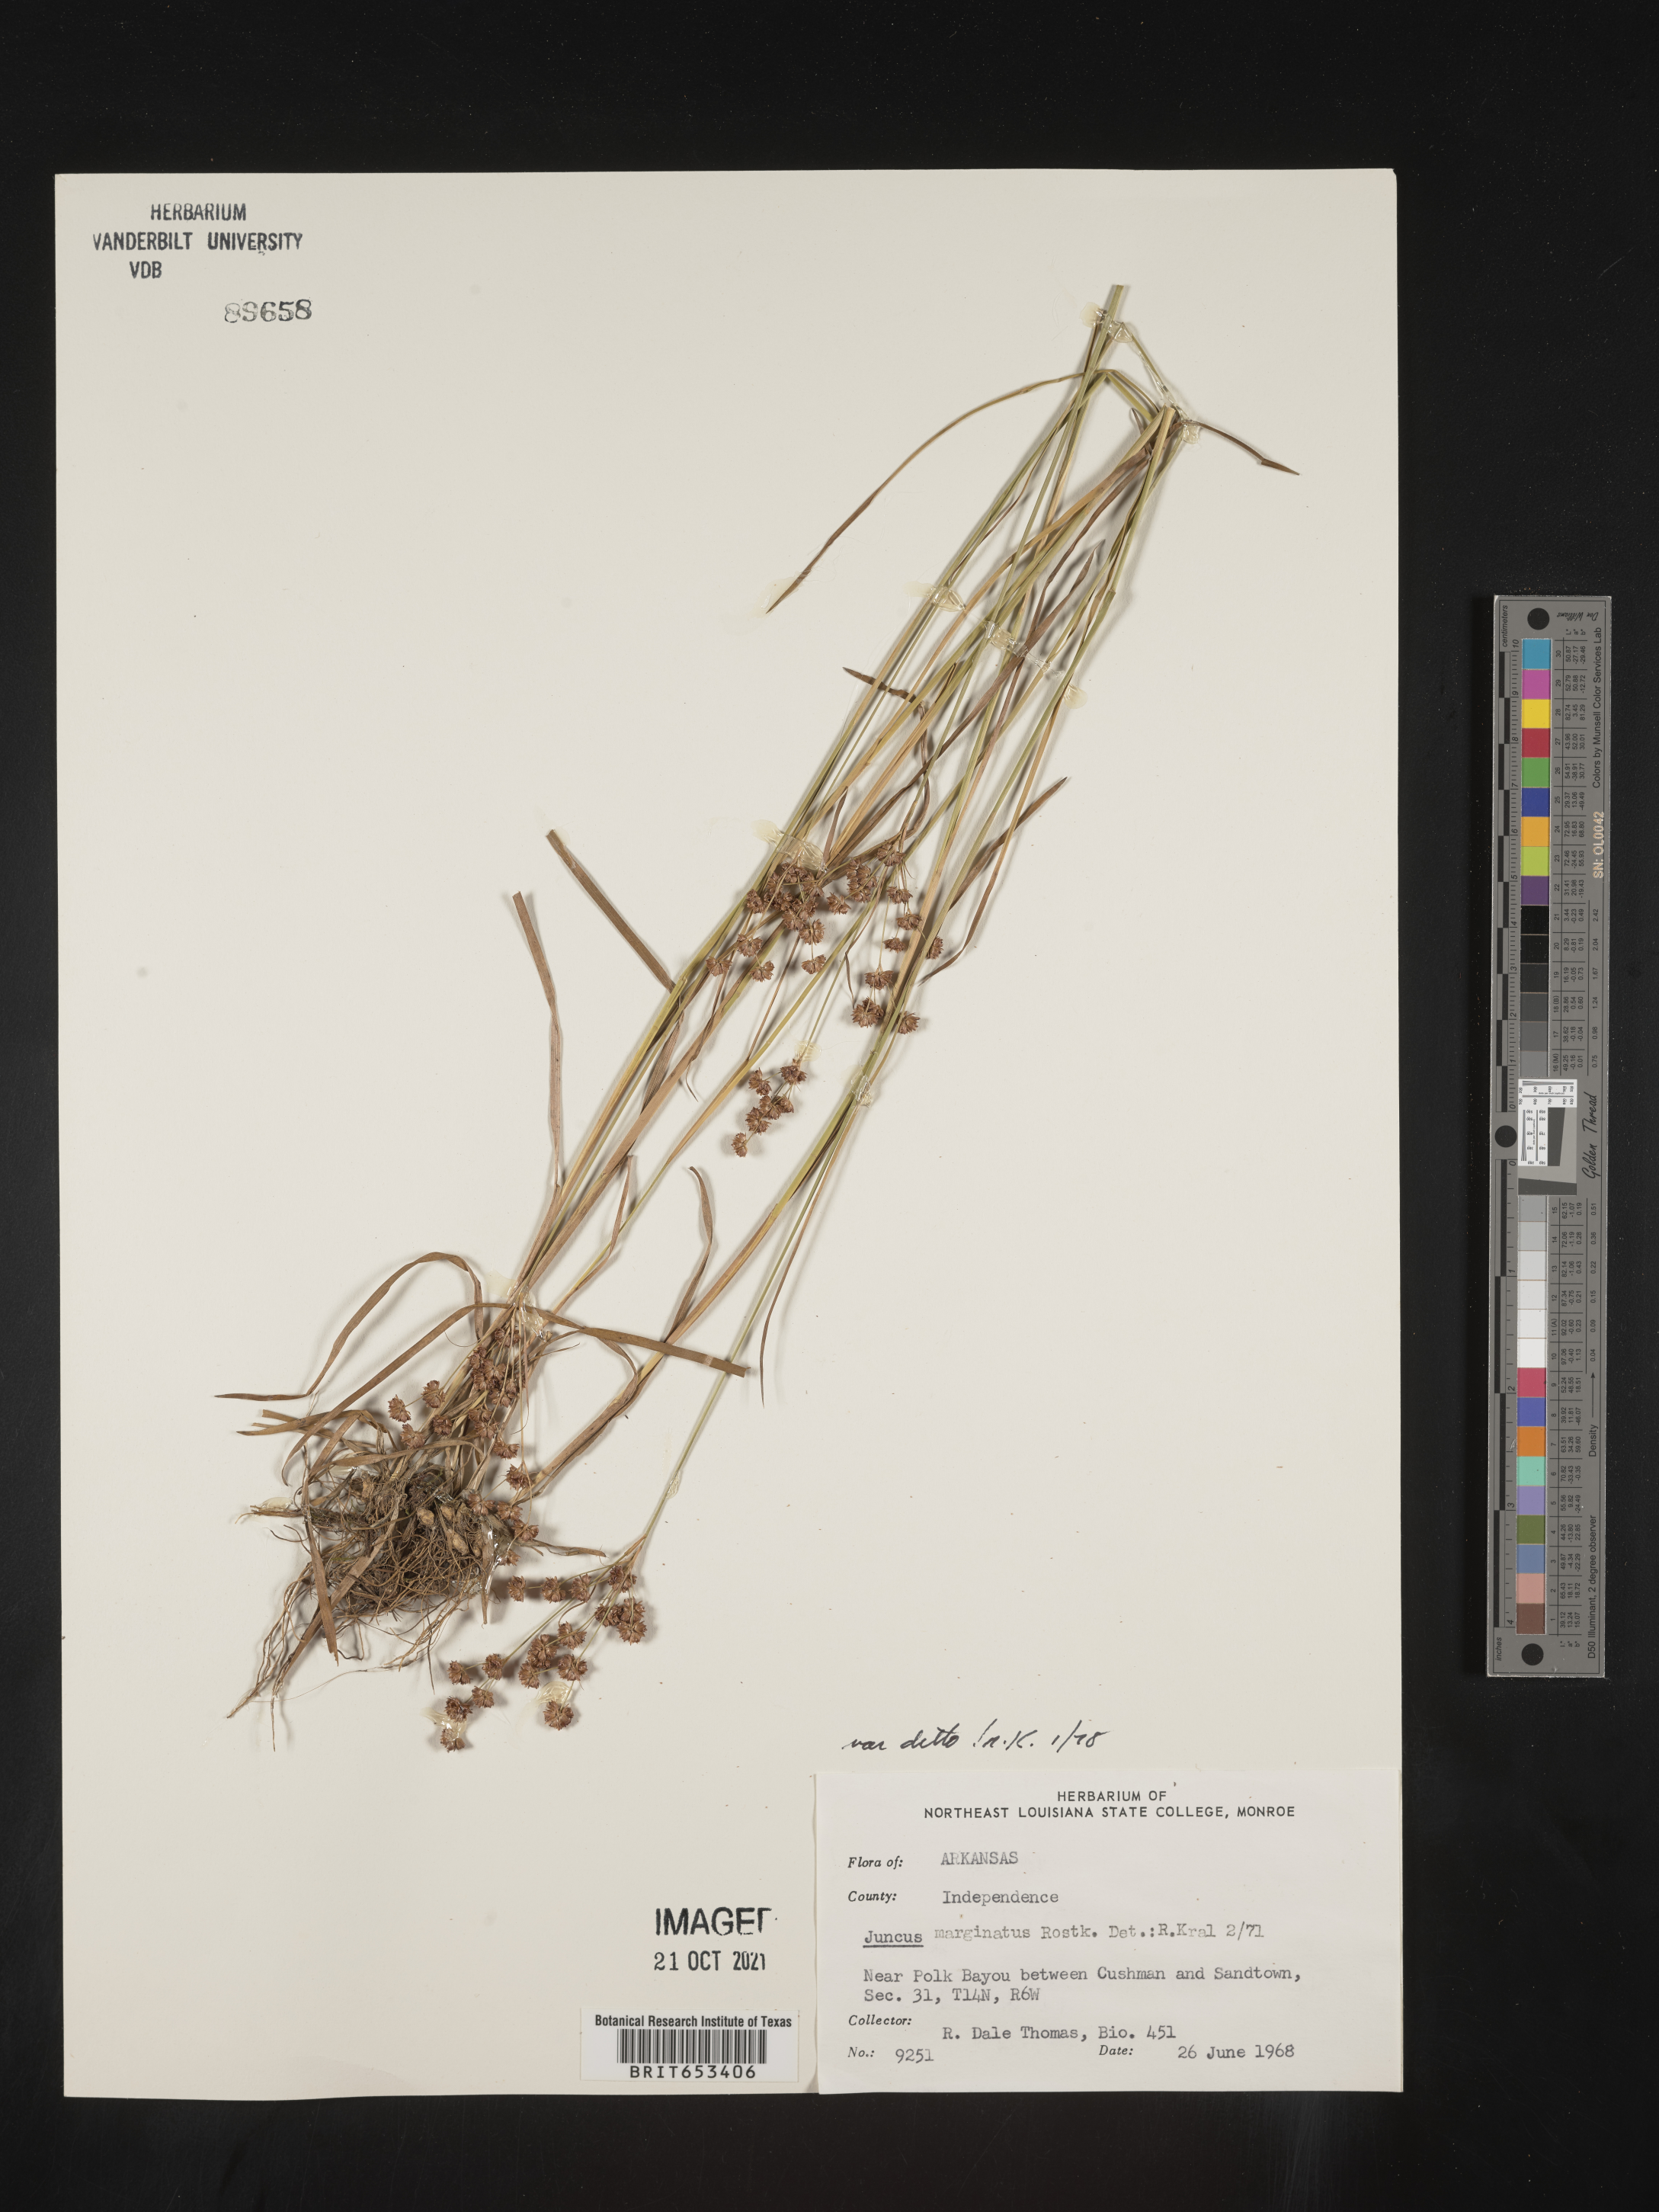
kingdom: Plantae
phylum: Tracheophyta
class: Liliopsida
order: Poales
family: Juncaceae
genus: Juncus
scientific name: Juncus marginatus
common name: Grass-leaf rush
